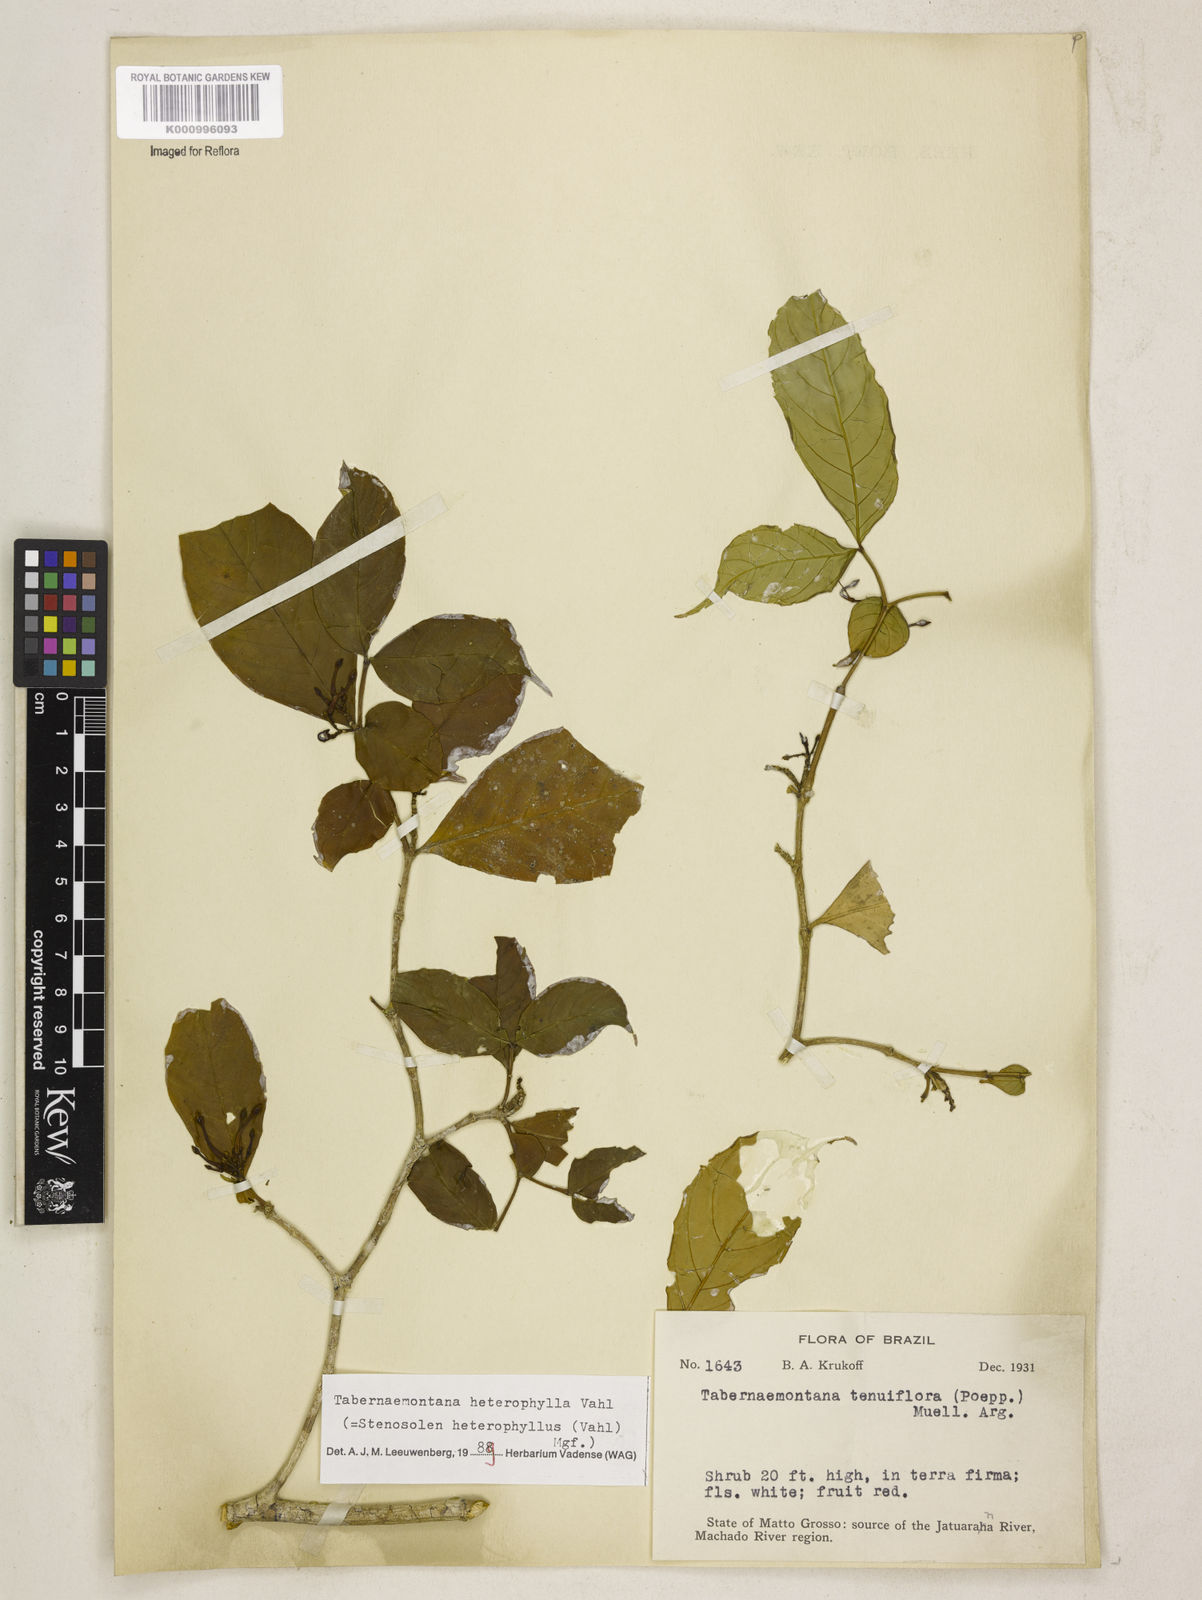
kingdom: Plantae
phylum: Tracheophyta
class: Magnoliopsida
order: Gentianales
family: Apocynaceae
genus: Tabernaemontana
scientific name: Tabernaemontana heterophylla
